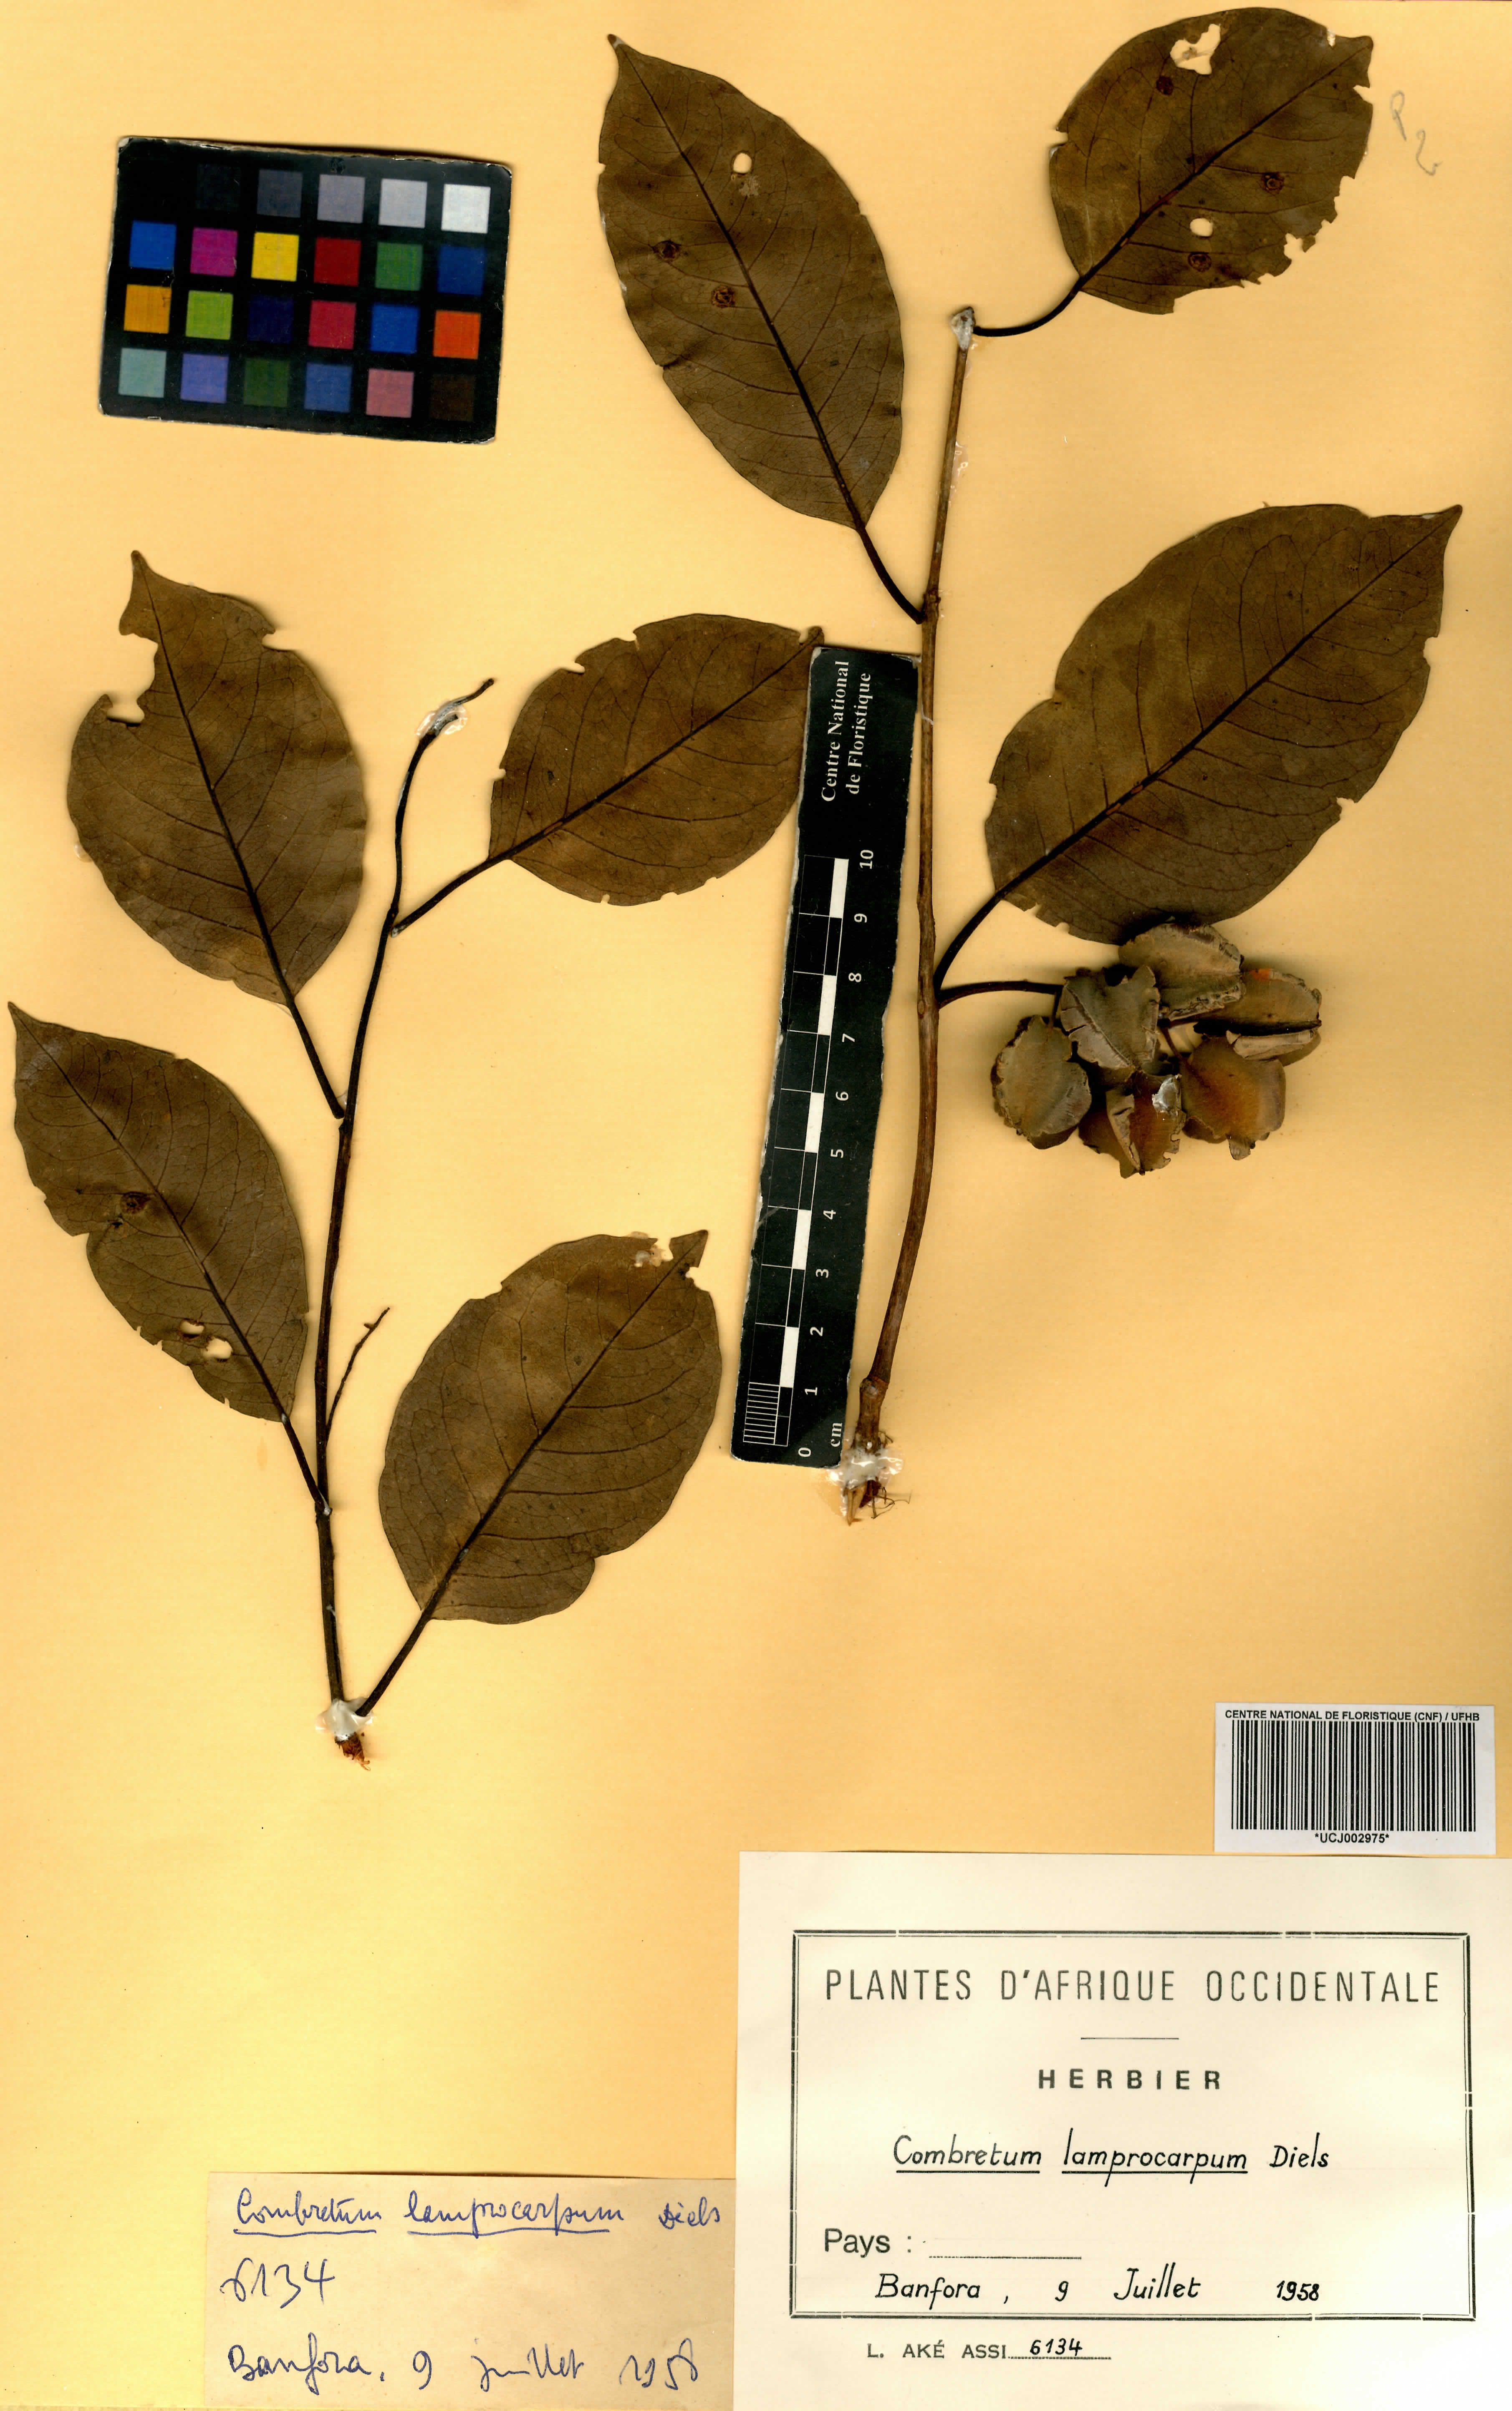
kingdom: Plantae
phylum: Tracheophyta
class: Magnoliopsida
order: Myrtales
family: Combretaceae
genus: Combretum
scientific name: Combretum collinum
